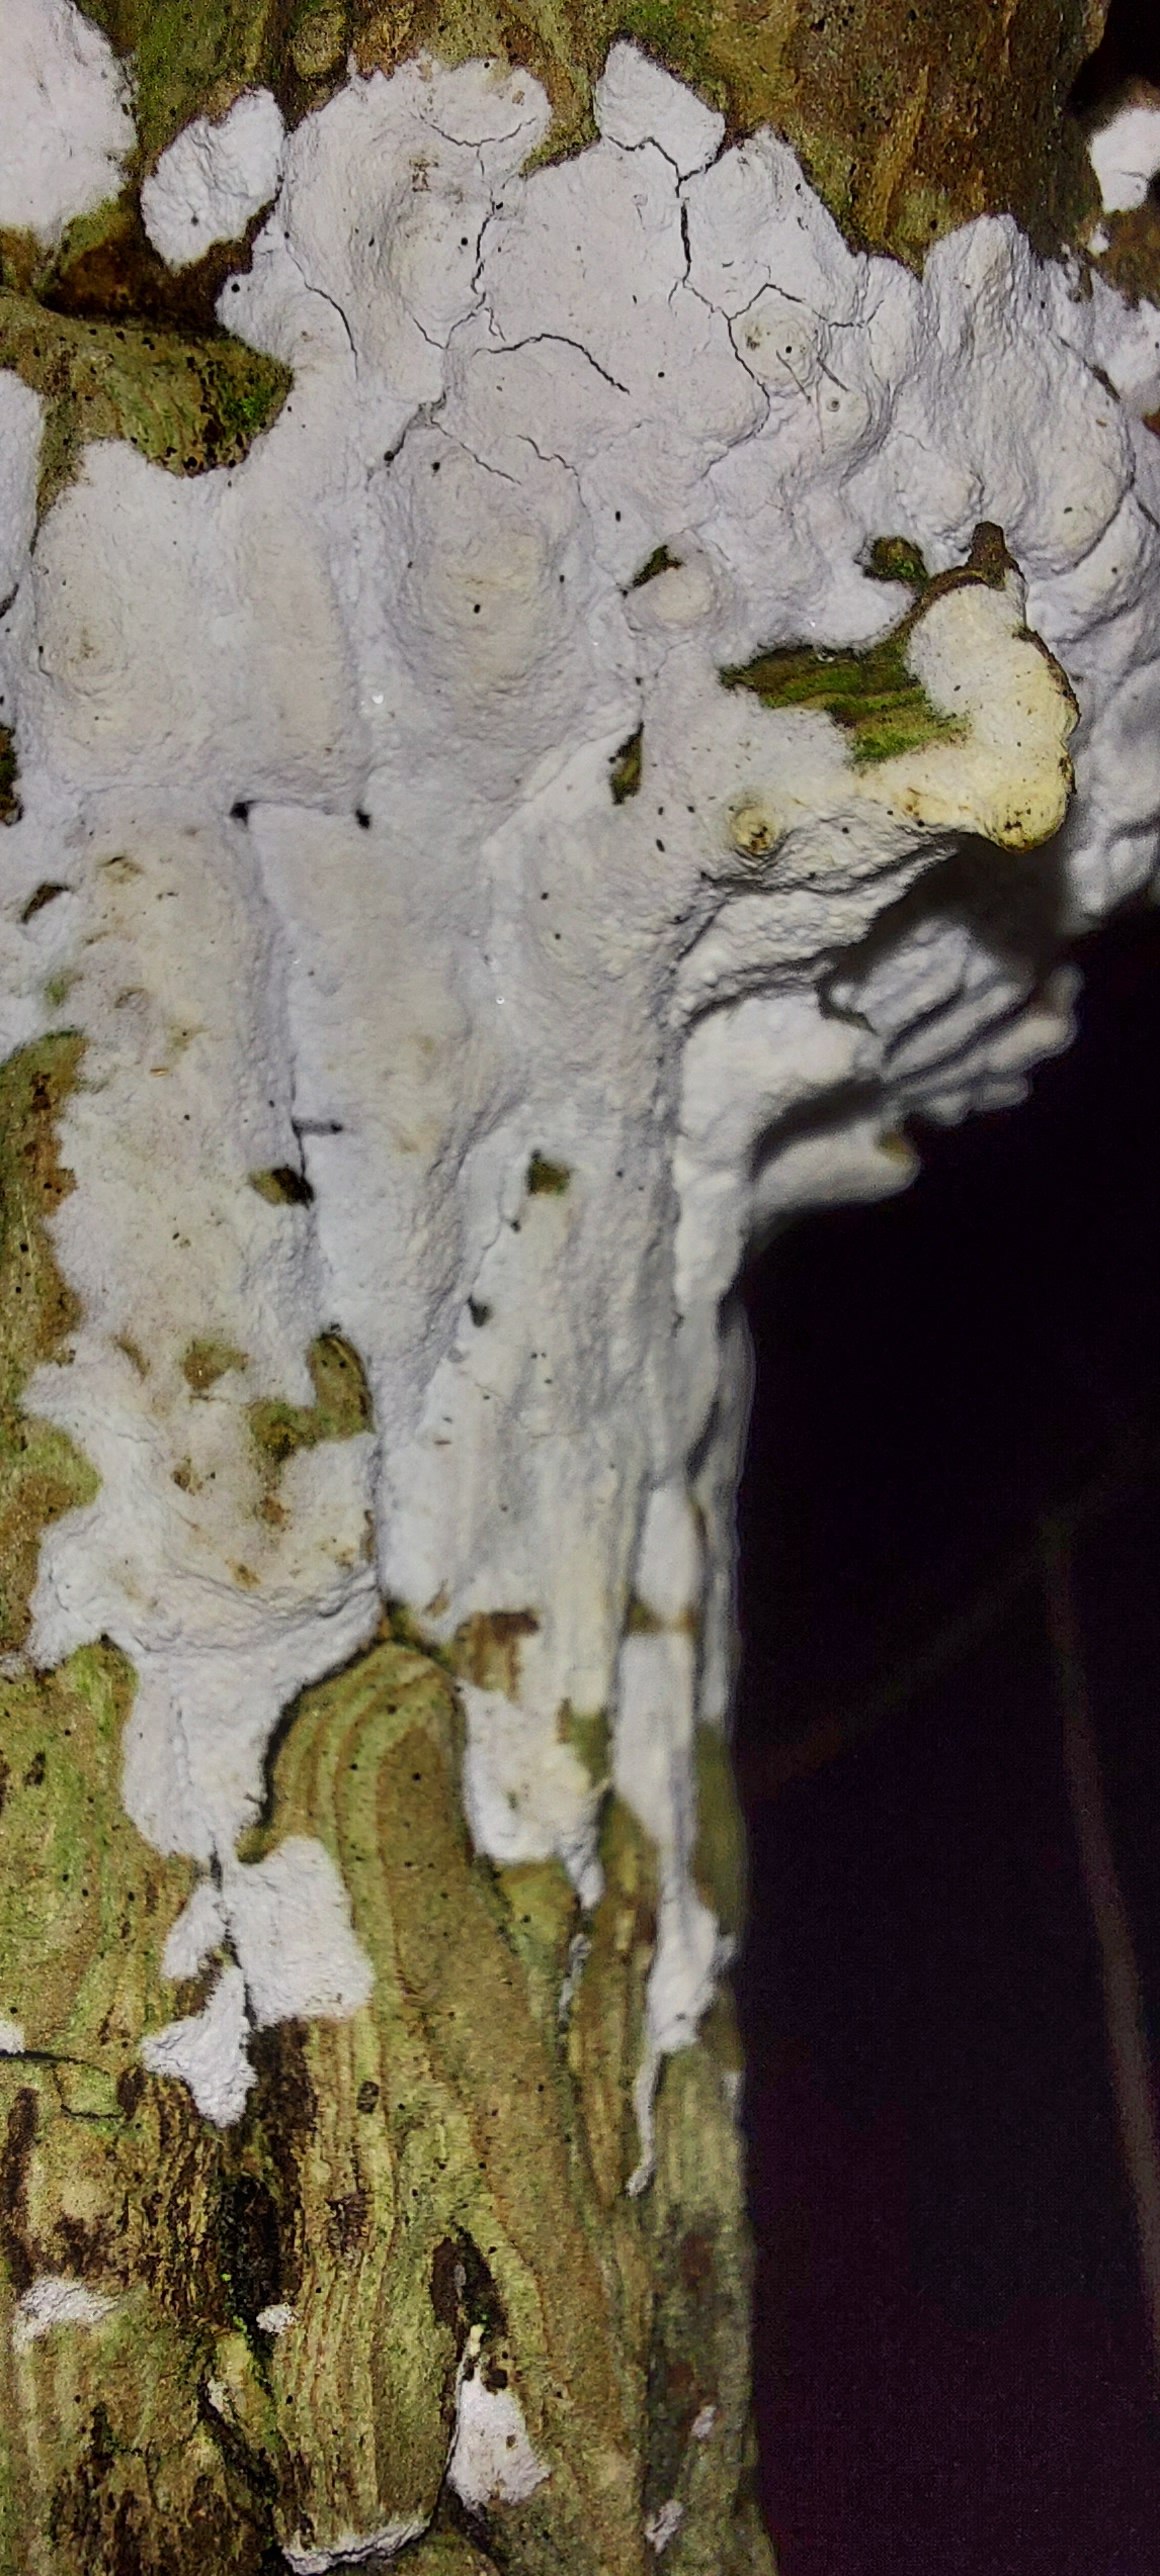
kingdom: Fungi
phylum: Basidiomycota
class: Agaricomycetes
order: Corticiales
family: Corticiaceae
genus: Lyomyces
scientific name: Lyomyces sambuci
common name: almindelig hyldehinde
